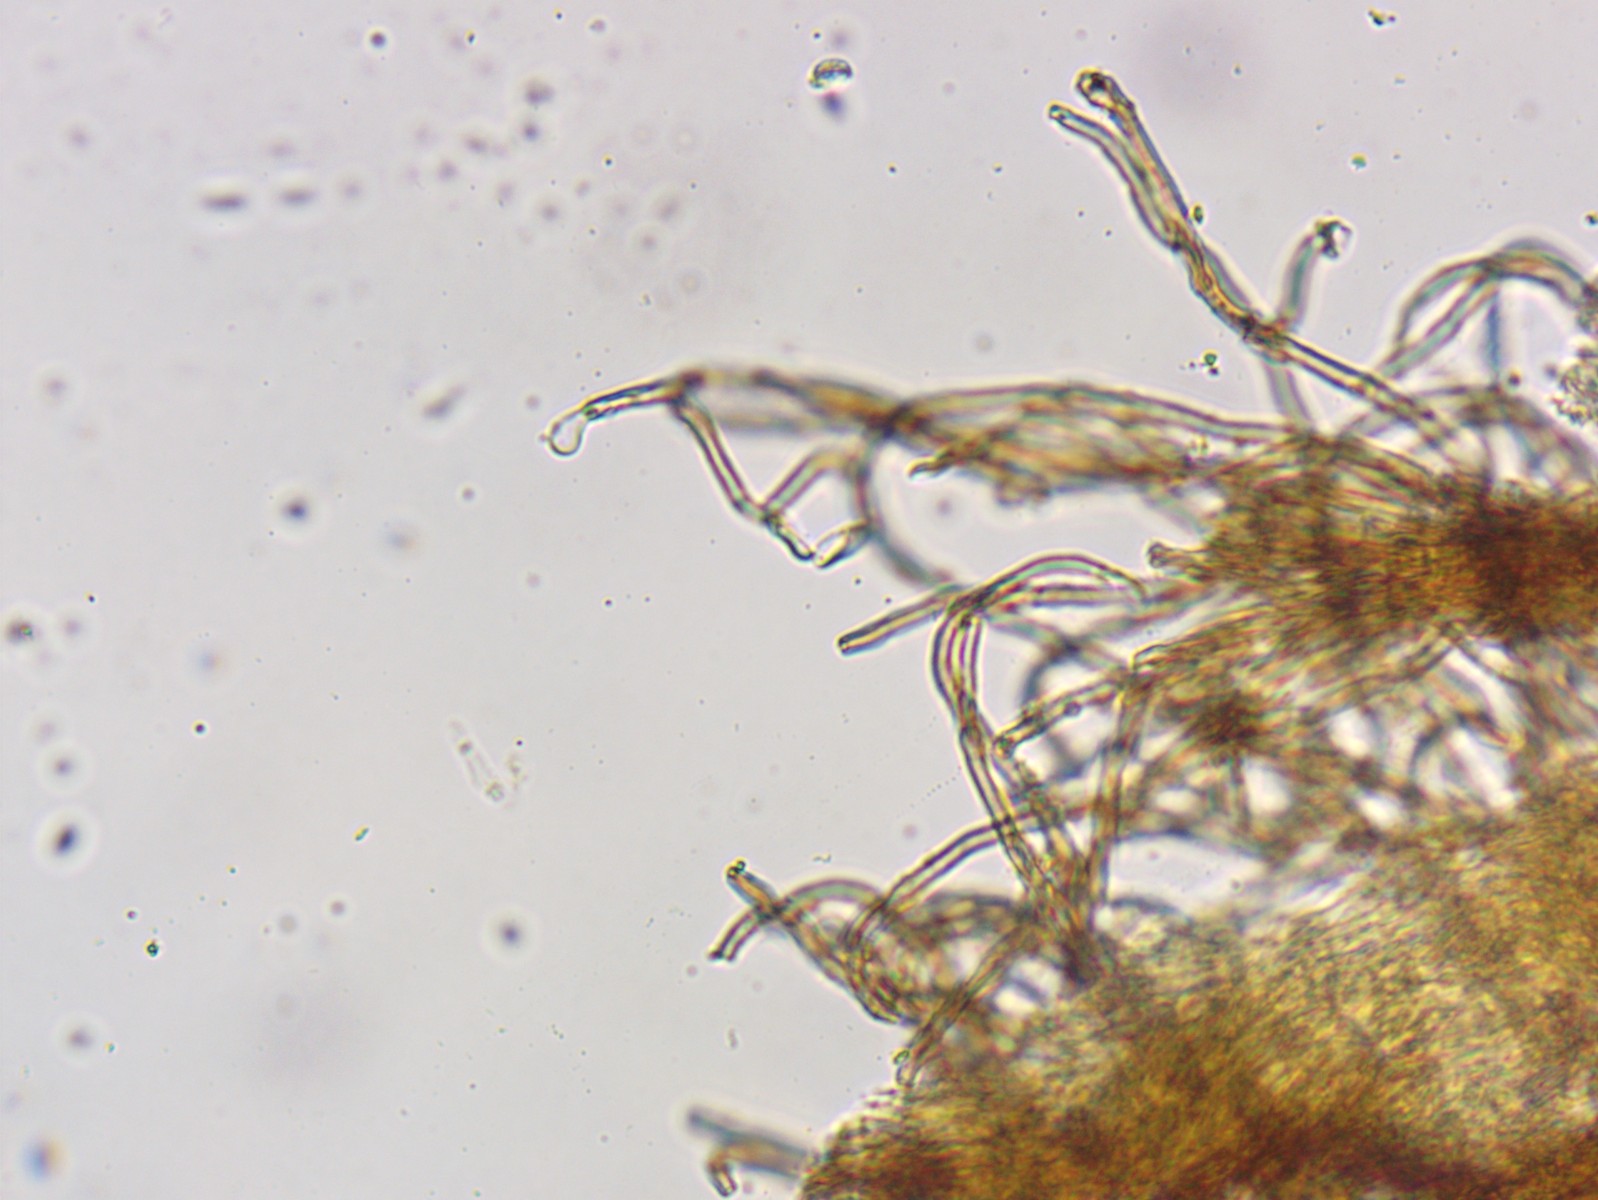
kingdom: Fungi
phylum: Basidiomycota
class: Agaricomycetes
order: Agaricales
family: Niaceae
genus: Merismodes
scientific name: Merismodes anomala
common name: almindelig læderskål
